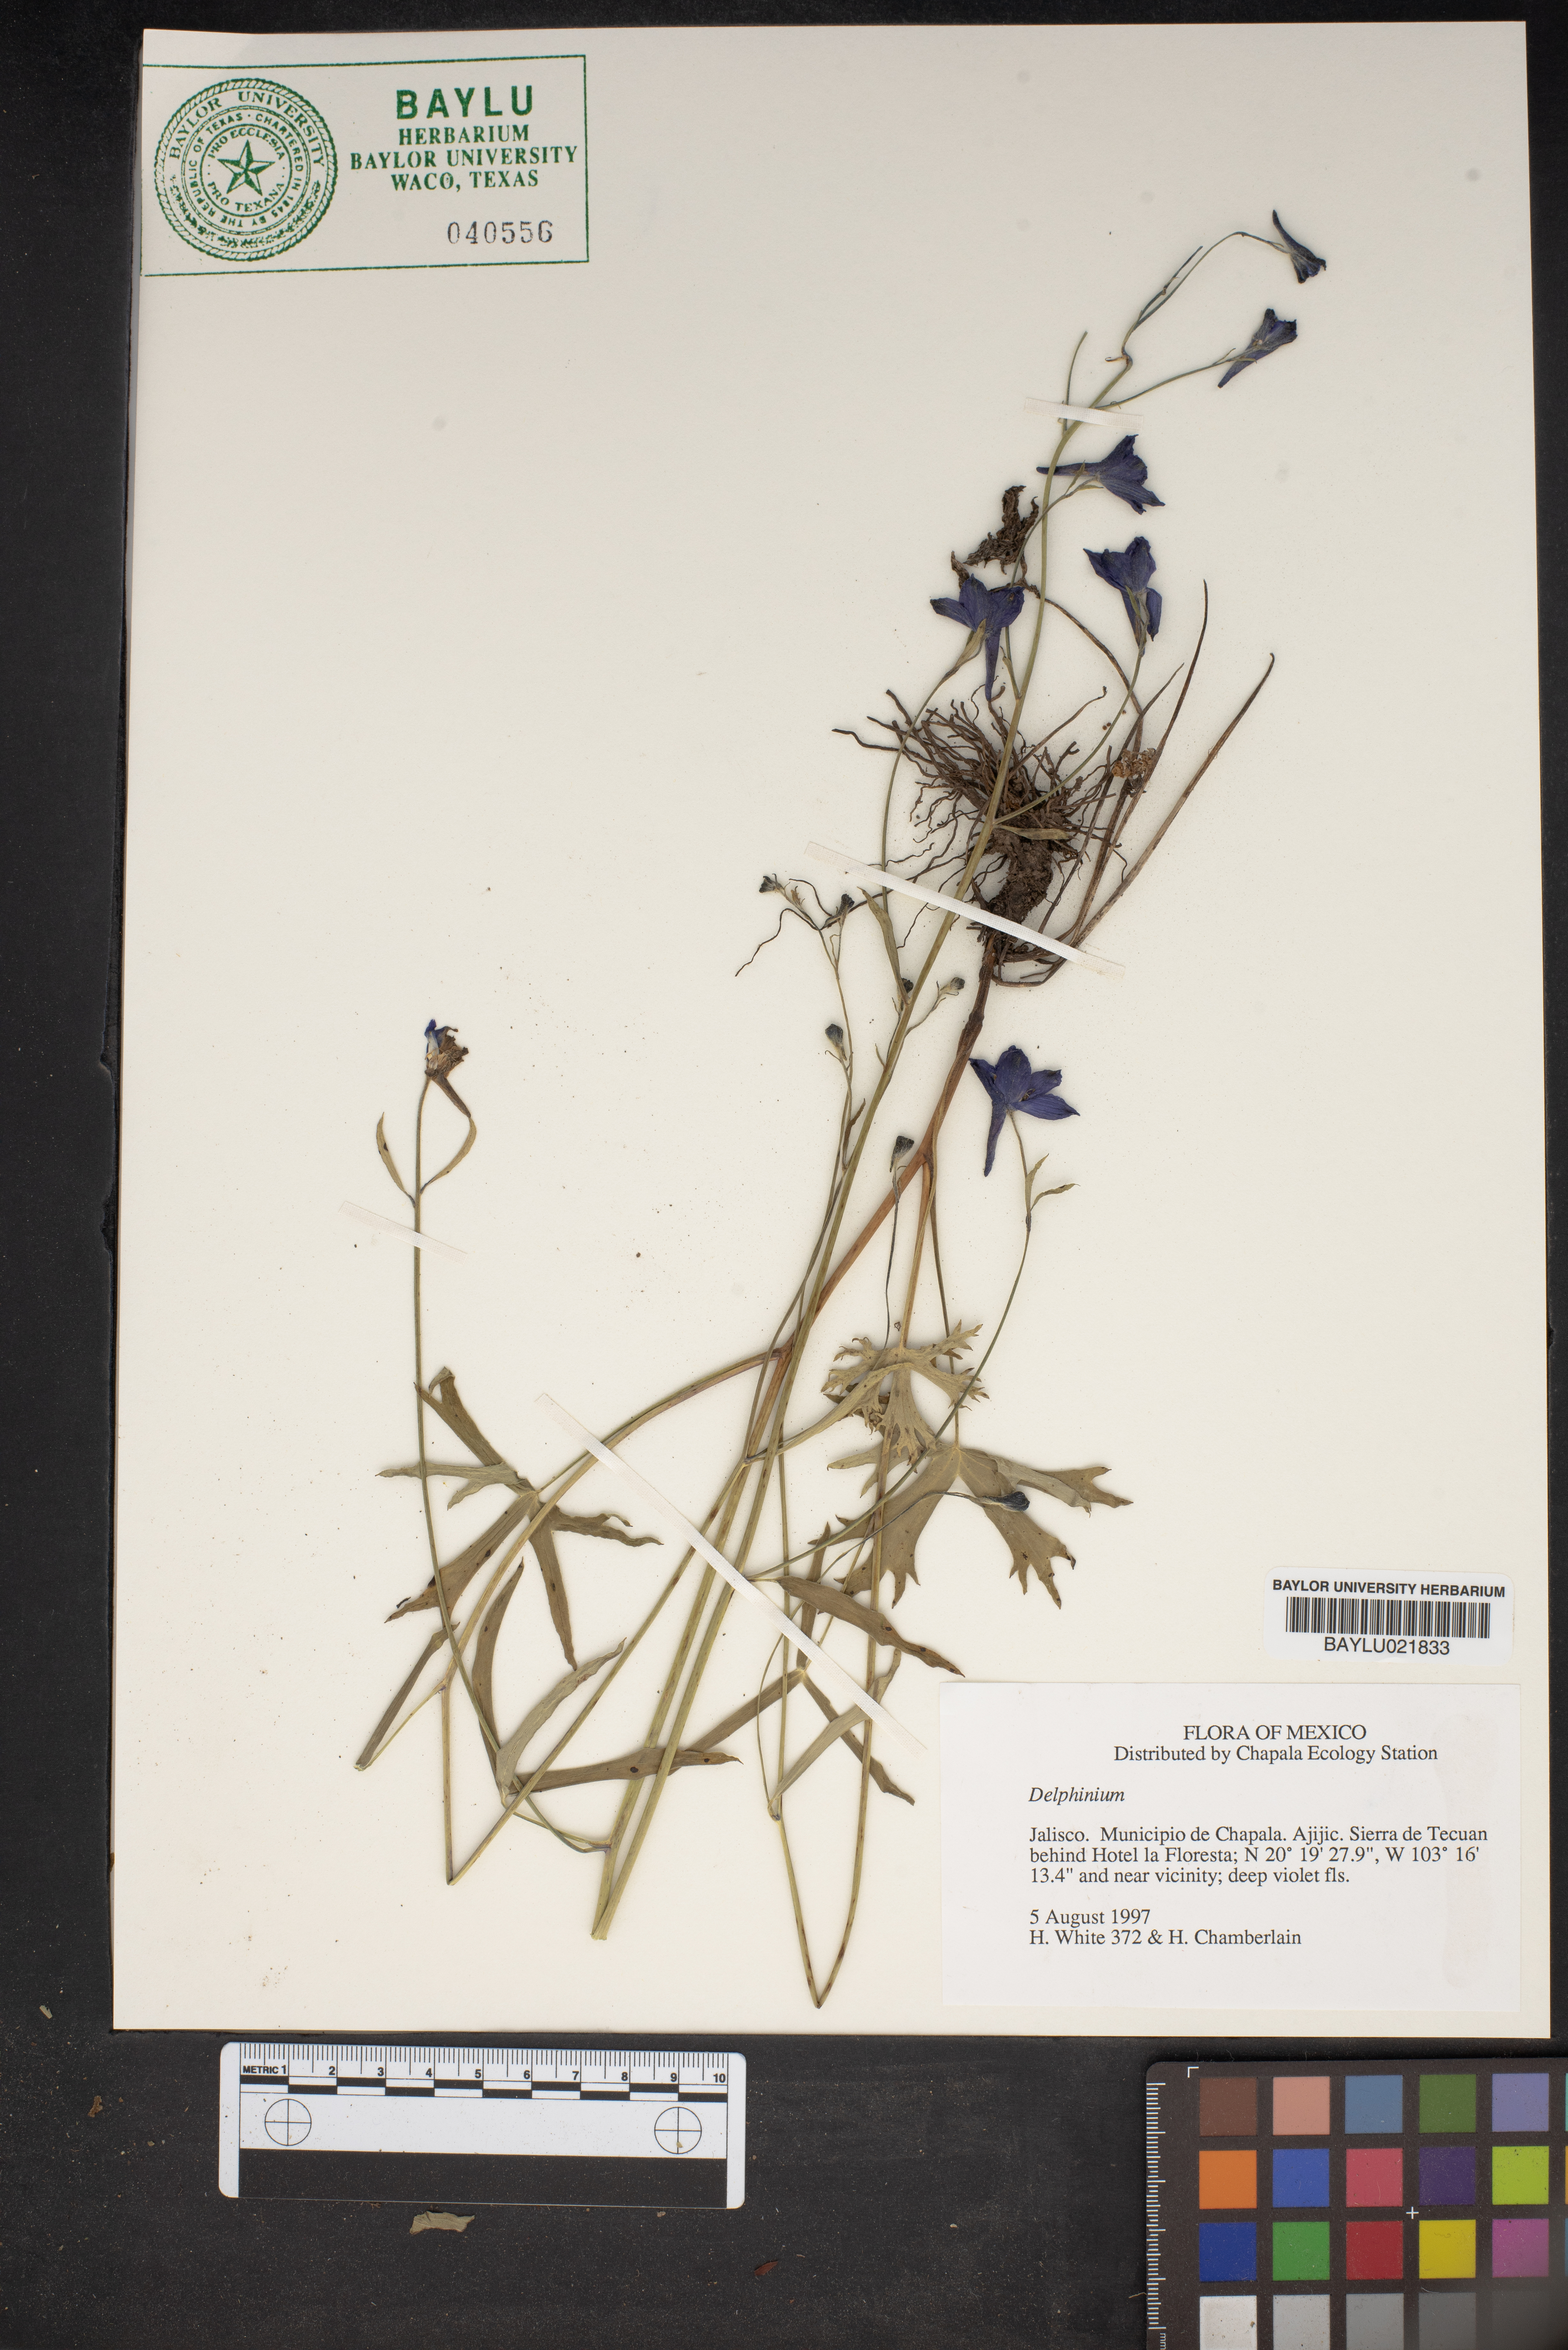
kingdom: Plantae
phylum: Tracheophyta
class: Magnoliopsida
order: Ranunculales
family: Ranunculaceae
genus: Delphinium
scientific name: Delphinium
